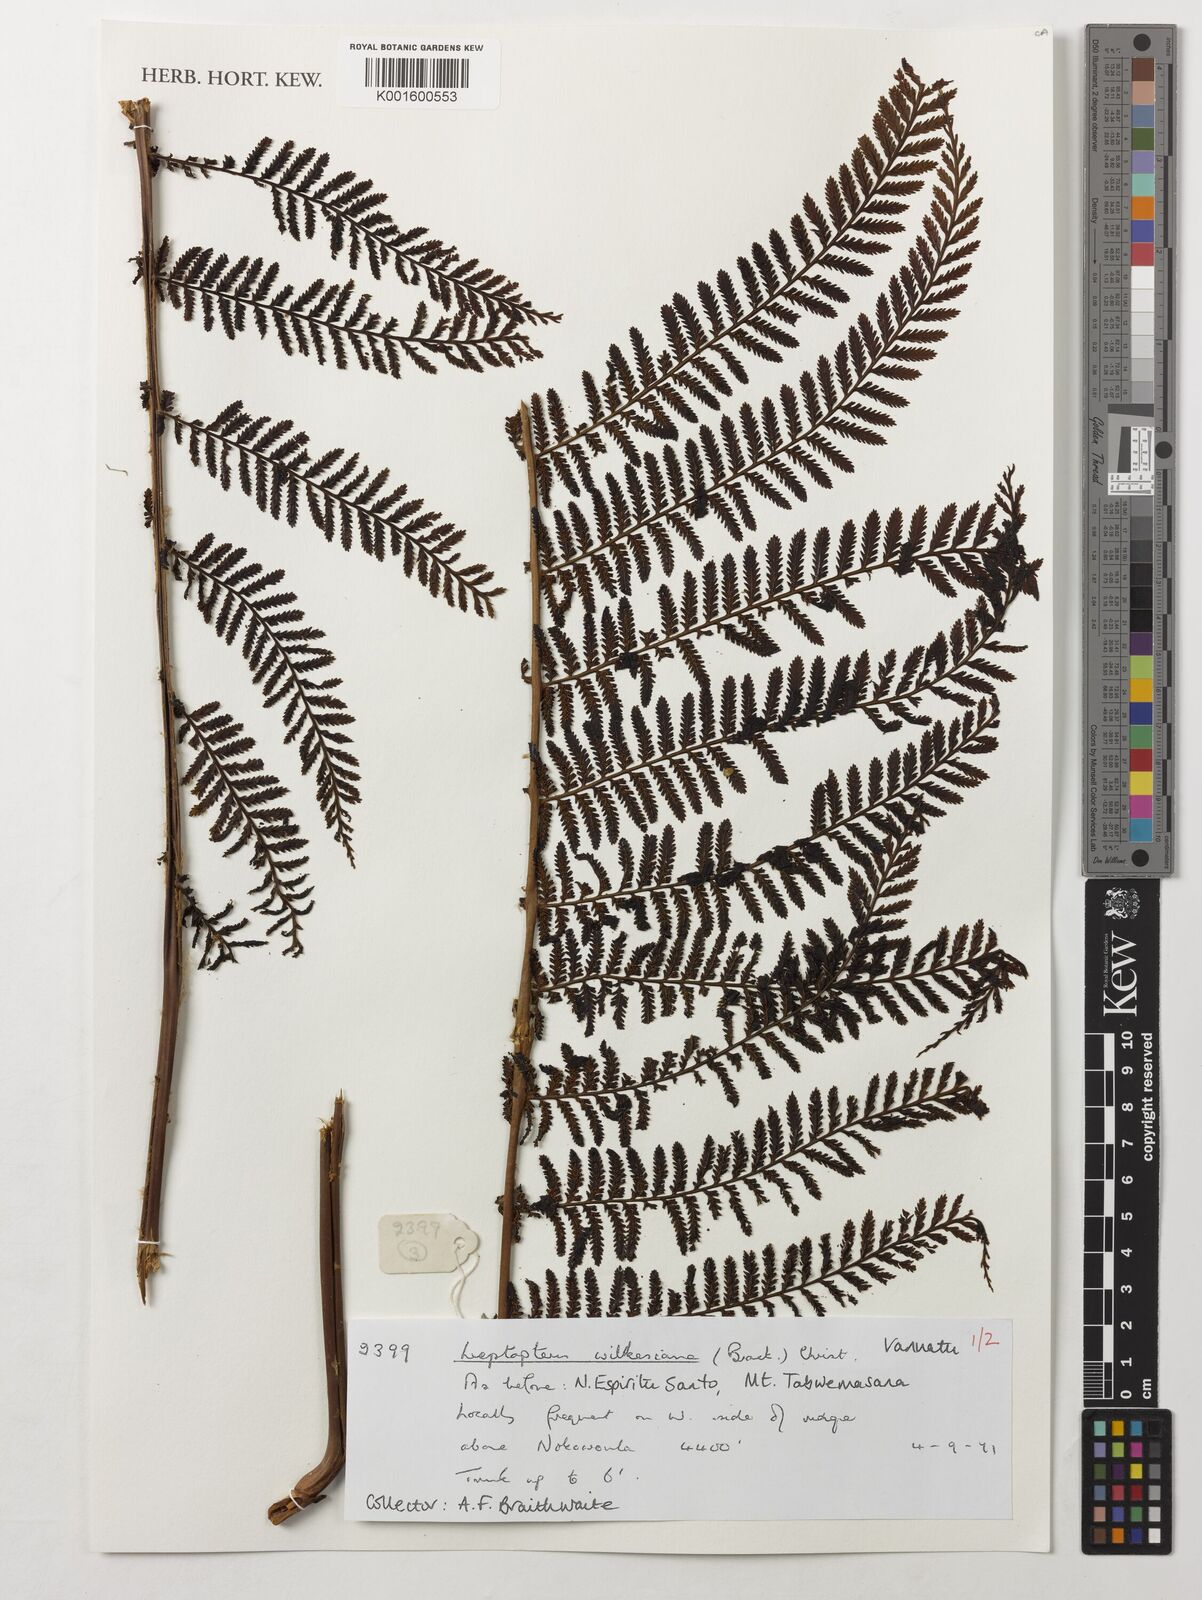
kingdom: Plantae
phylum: Tracheophyta
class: Polypodiopsida
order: Osmundales
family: Osmundaceae
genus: Leptopteris
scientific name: Leptopteris wilkesiana
